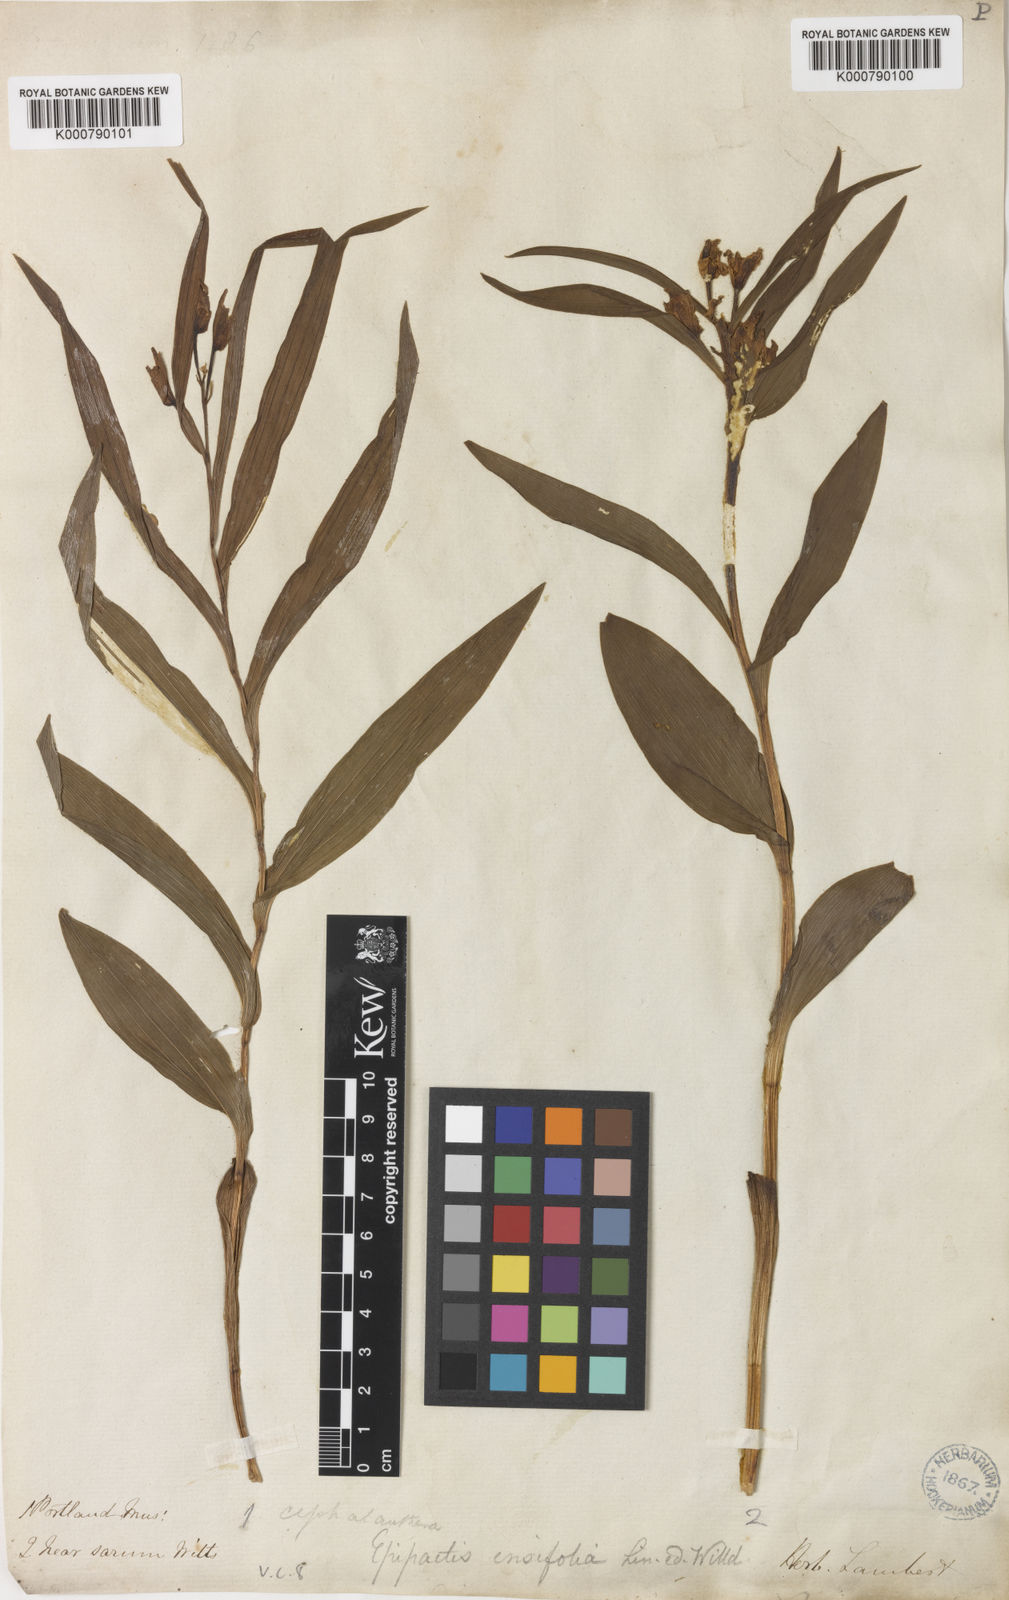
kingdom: Plantae
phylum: Tracheophyta
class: Liliopsida
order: Asparagales
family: Orchidaceae
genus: Cephalanthera
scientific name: Cephalanthera longifolia
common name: Narrow-leaved helleborine
